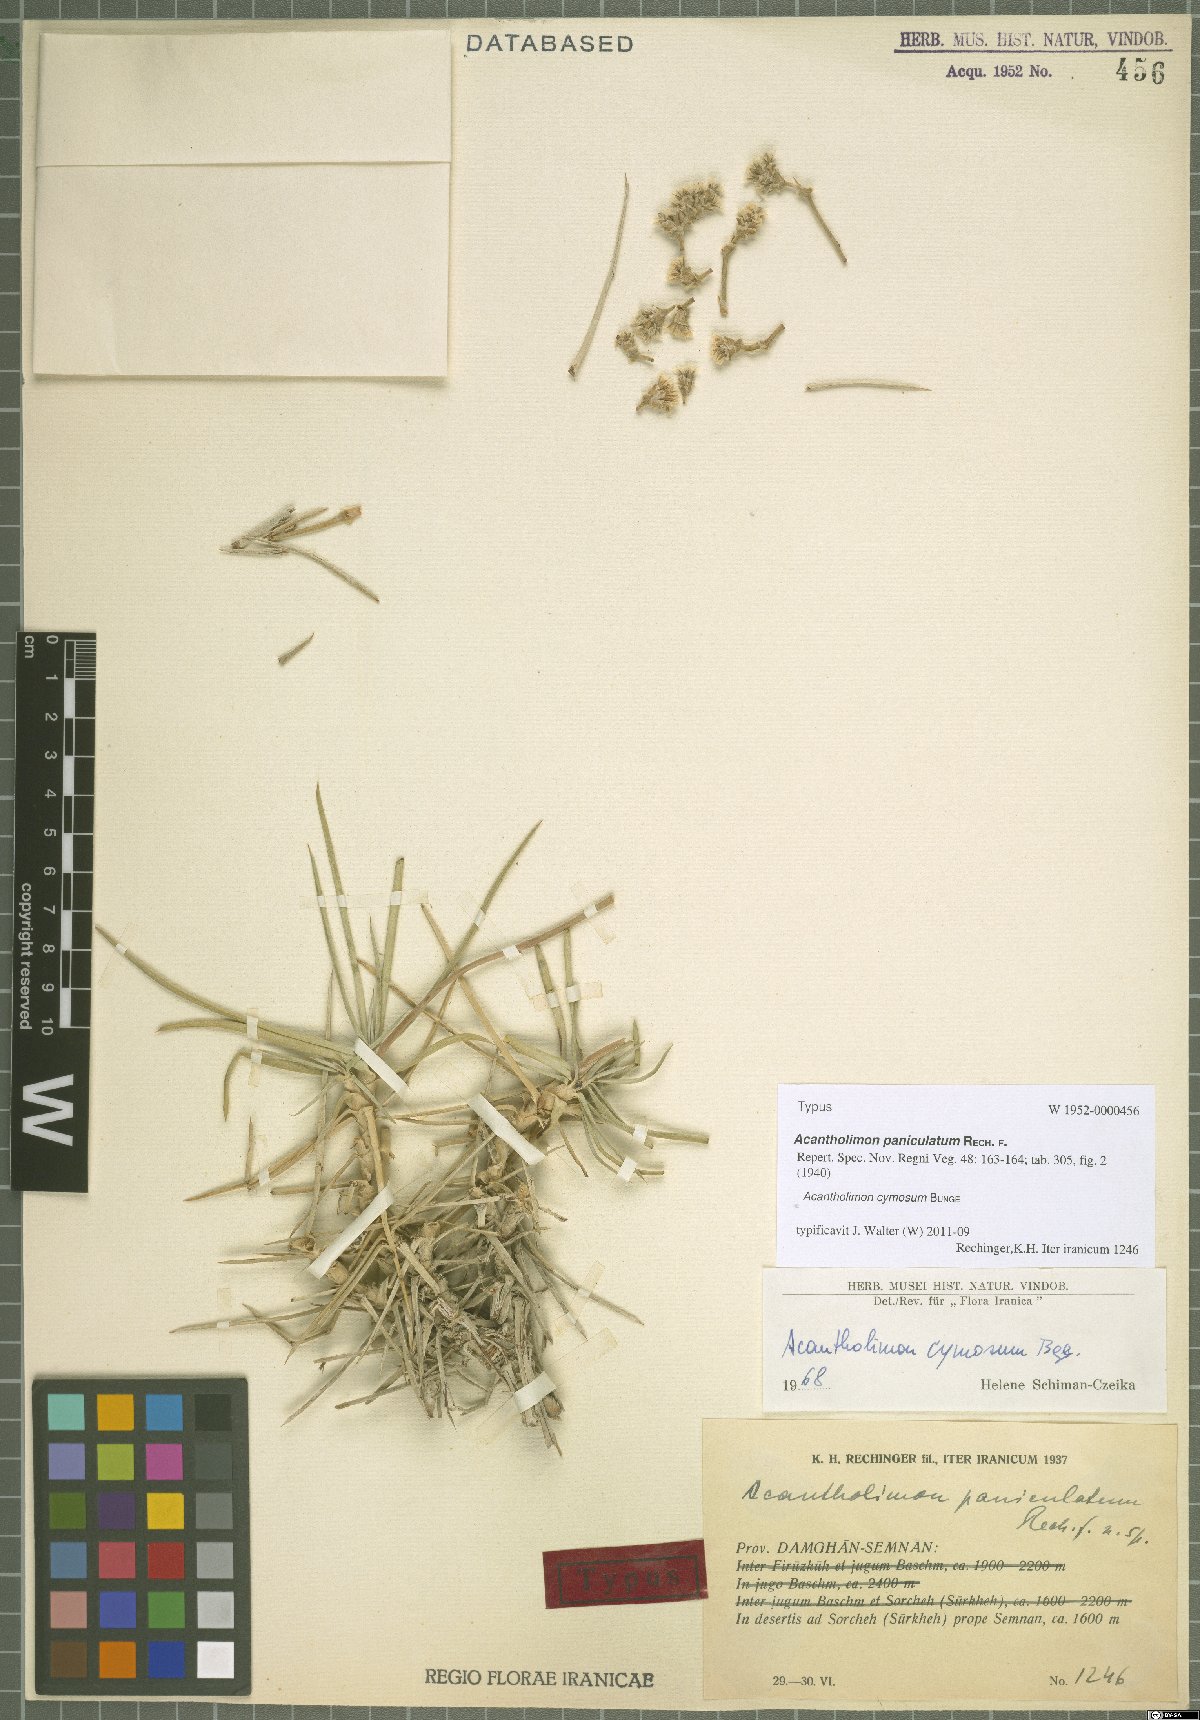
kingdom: Plantae
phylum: Tracheophyta
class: Magnoliopsida
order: Caryophyllales
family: Plumbaginaceae
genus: Acantholimon
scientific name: Acantholimon cymosum
